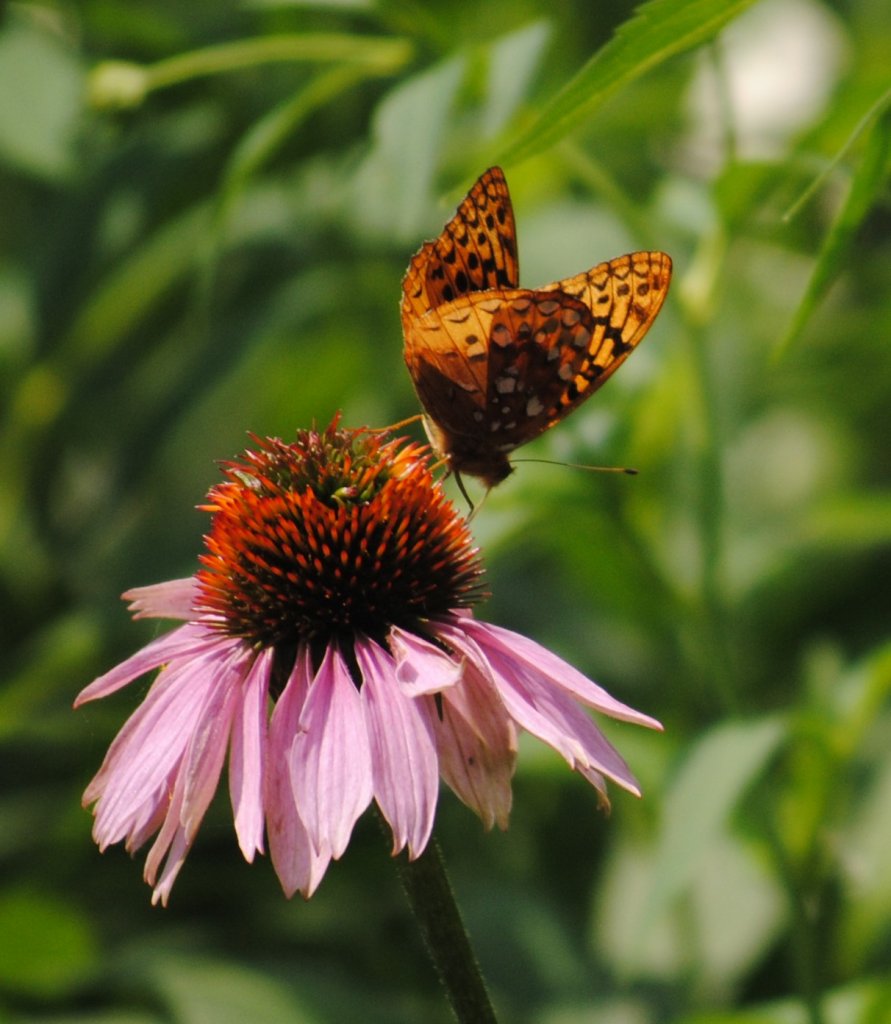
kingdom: Animalia
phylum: Arthropoda
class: Insecta
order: Lepidoptera
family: Nymphalidae
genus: Speyeria
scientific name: Speyeria cybele
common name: Great Spangled Fritillary
